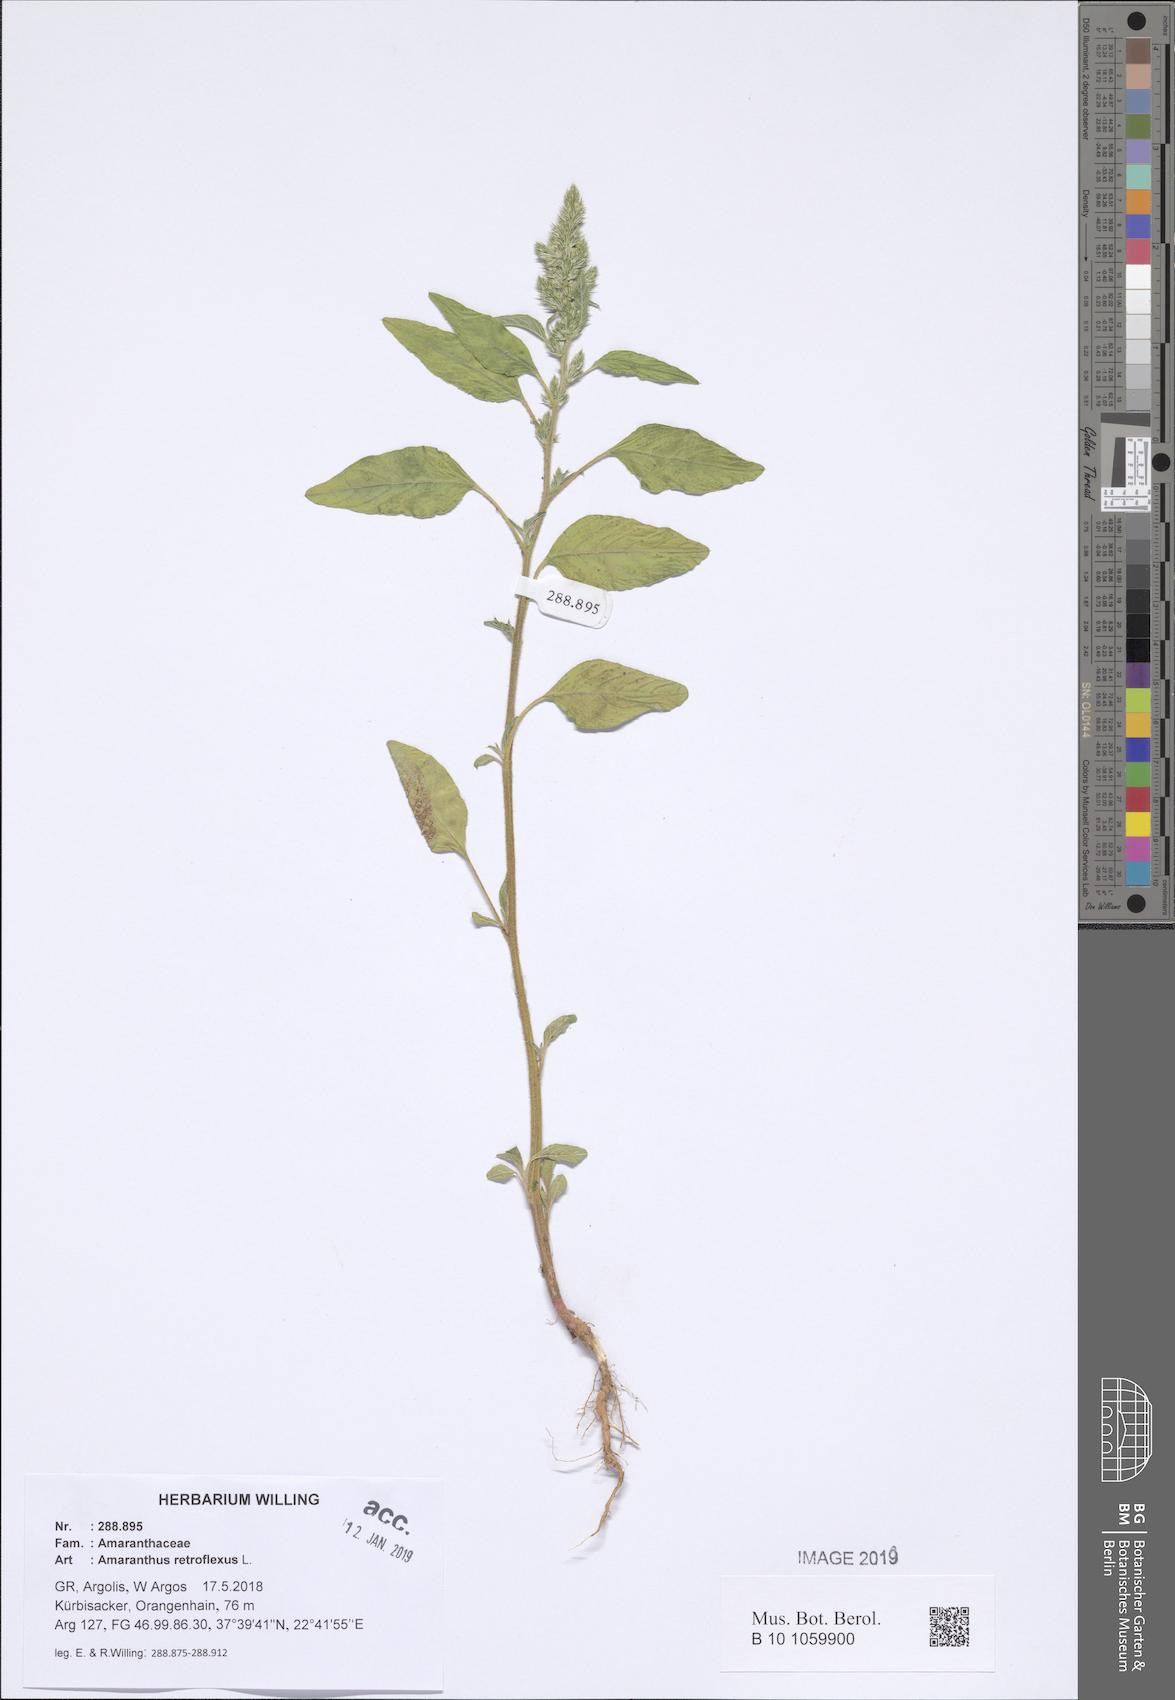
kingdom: Plantae
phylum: Tracheophyta
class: Magnoliopsida
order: Caryophyllales
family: Amaranthaceae
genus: Amaranthus
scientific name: Amaranthus retroflexus
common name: Redroot amaranth
